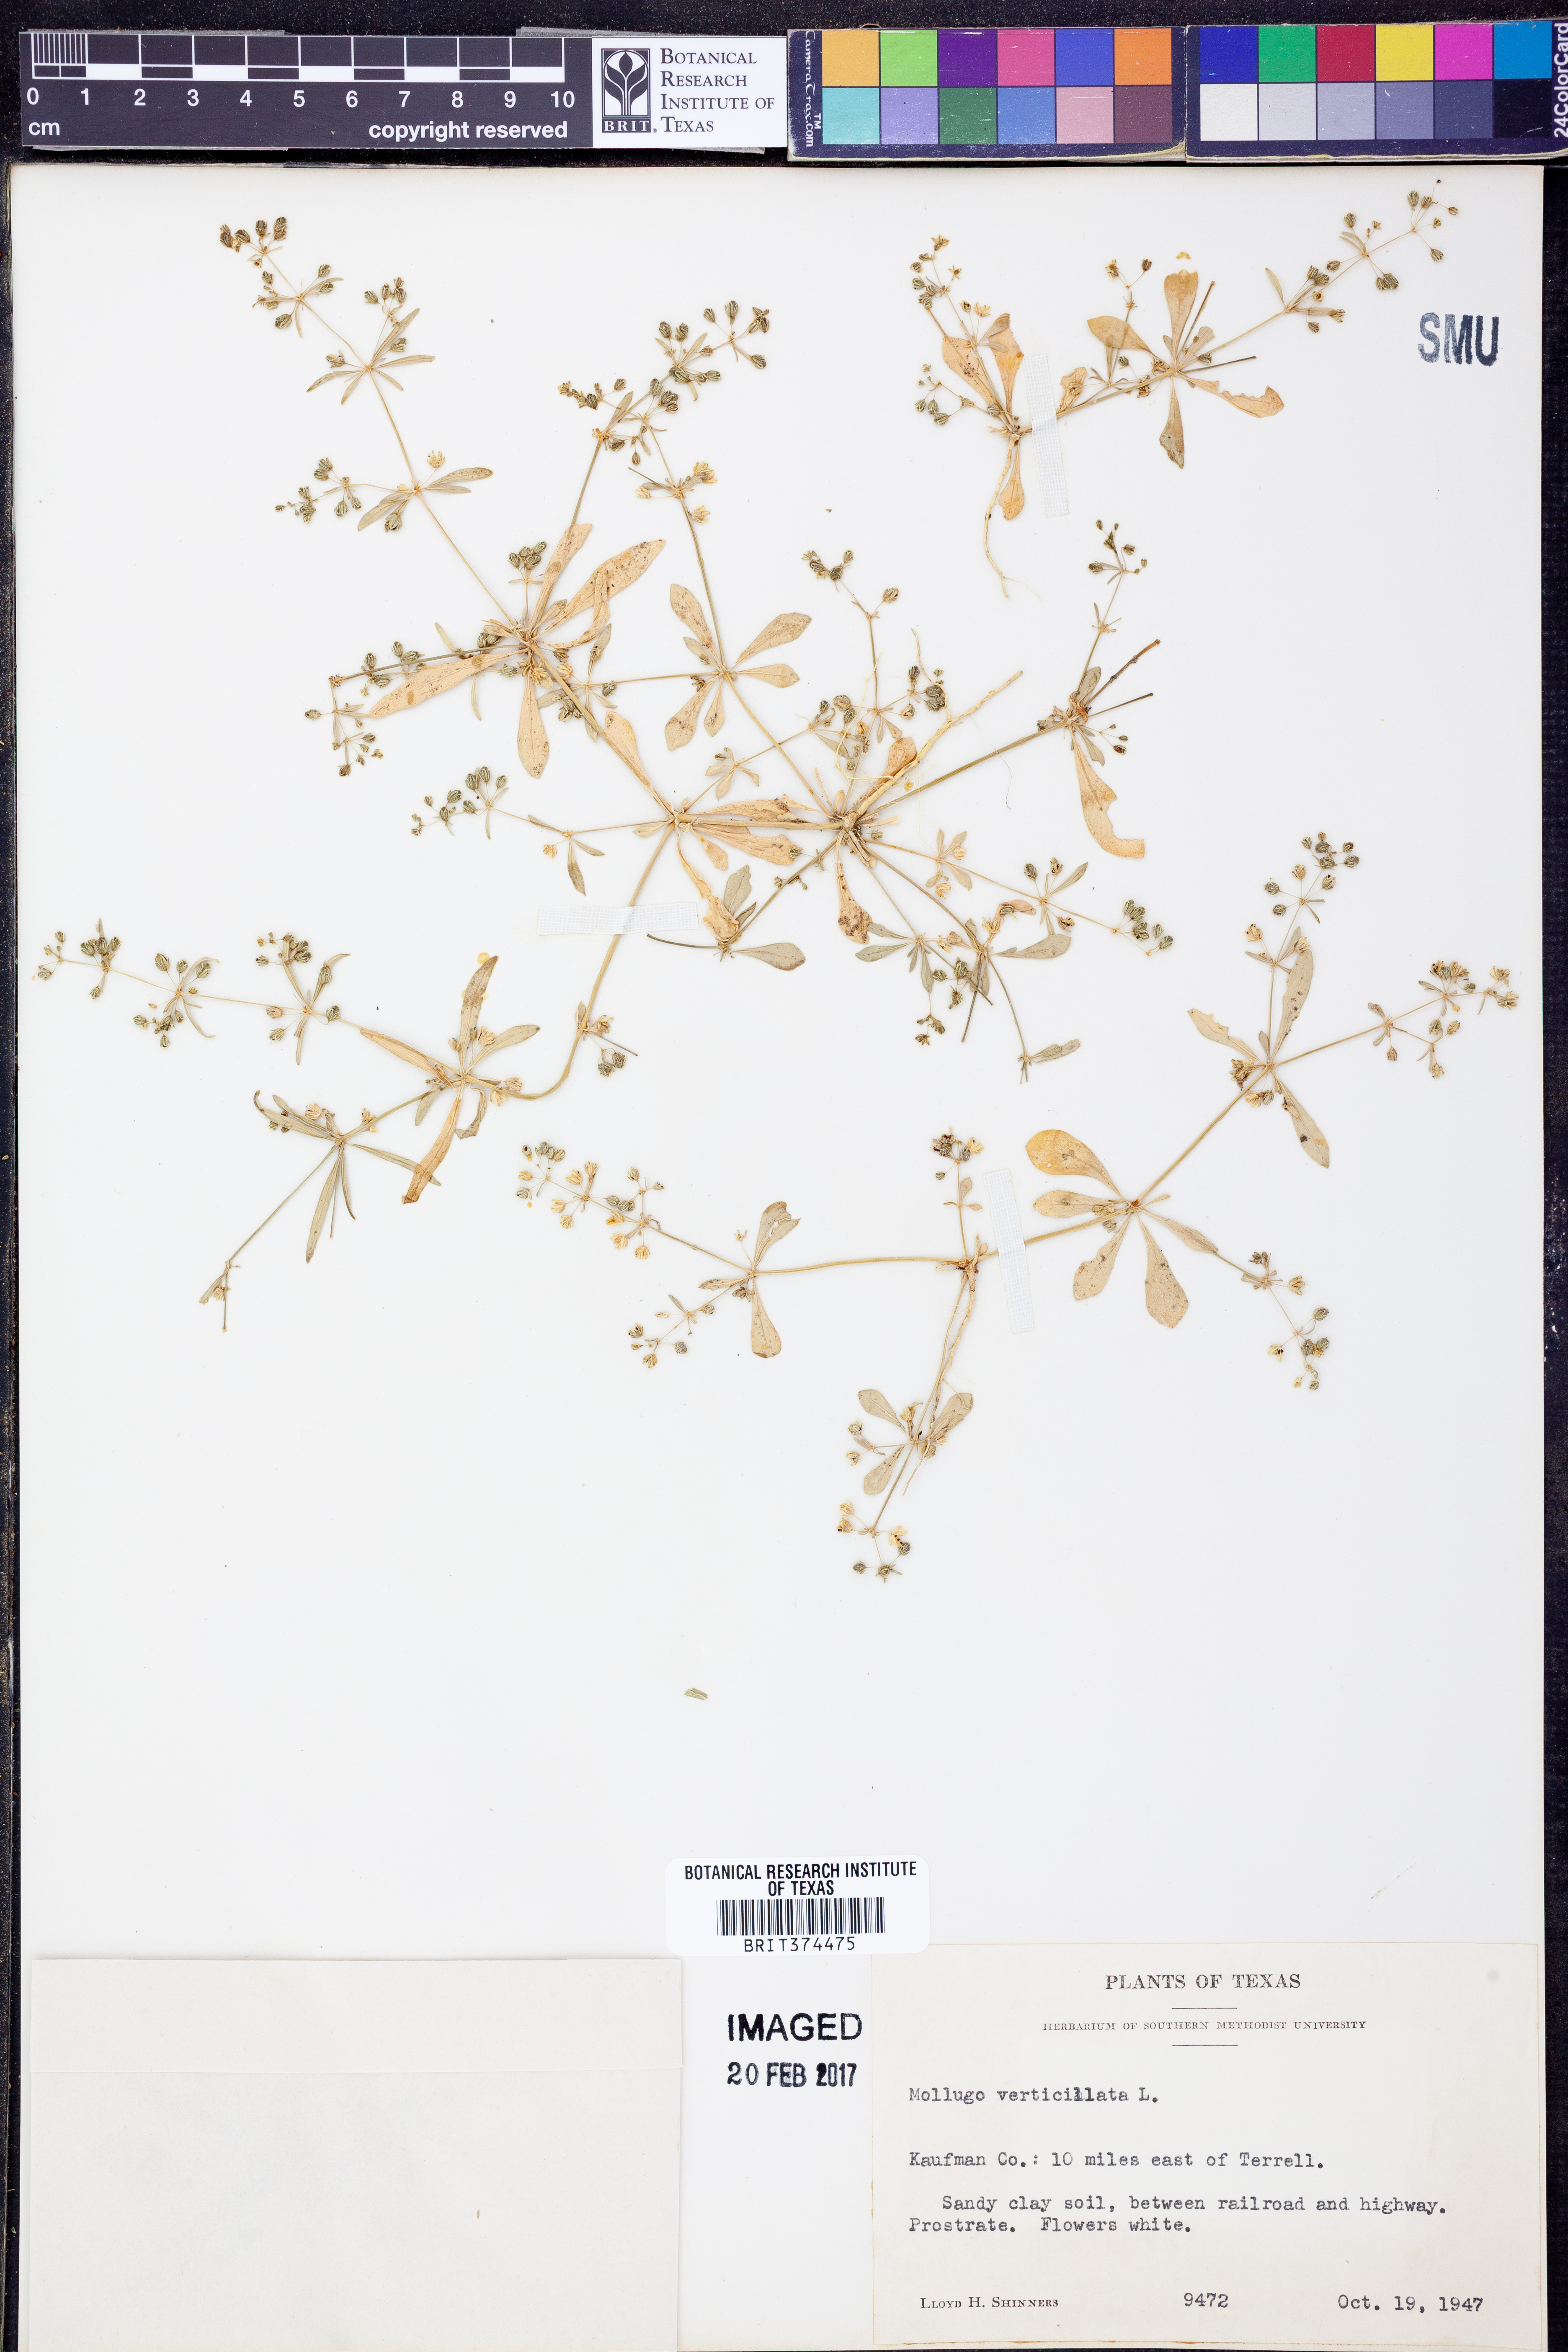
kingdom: Plantae
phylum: Tracheophyta
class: Magnoliopsida
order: Caryophyllales
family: Molluginaceae
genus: Mollugo
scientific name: Mollugo verticillata
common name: Green carpetweed
